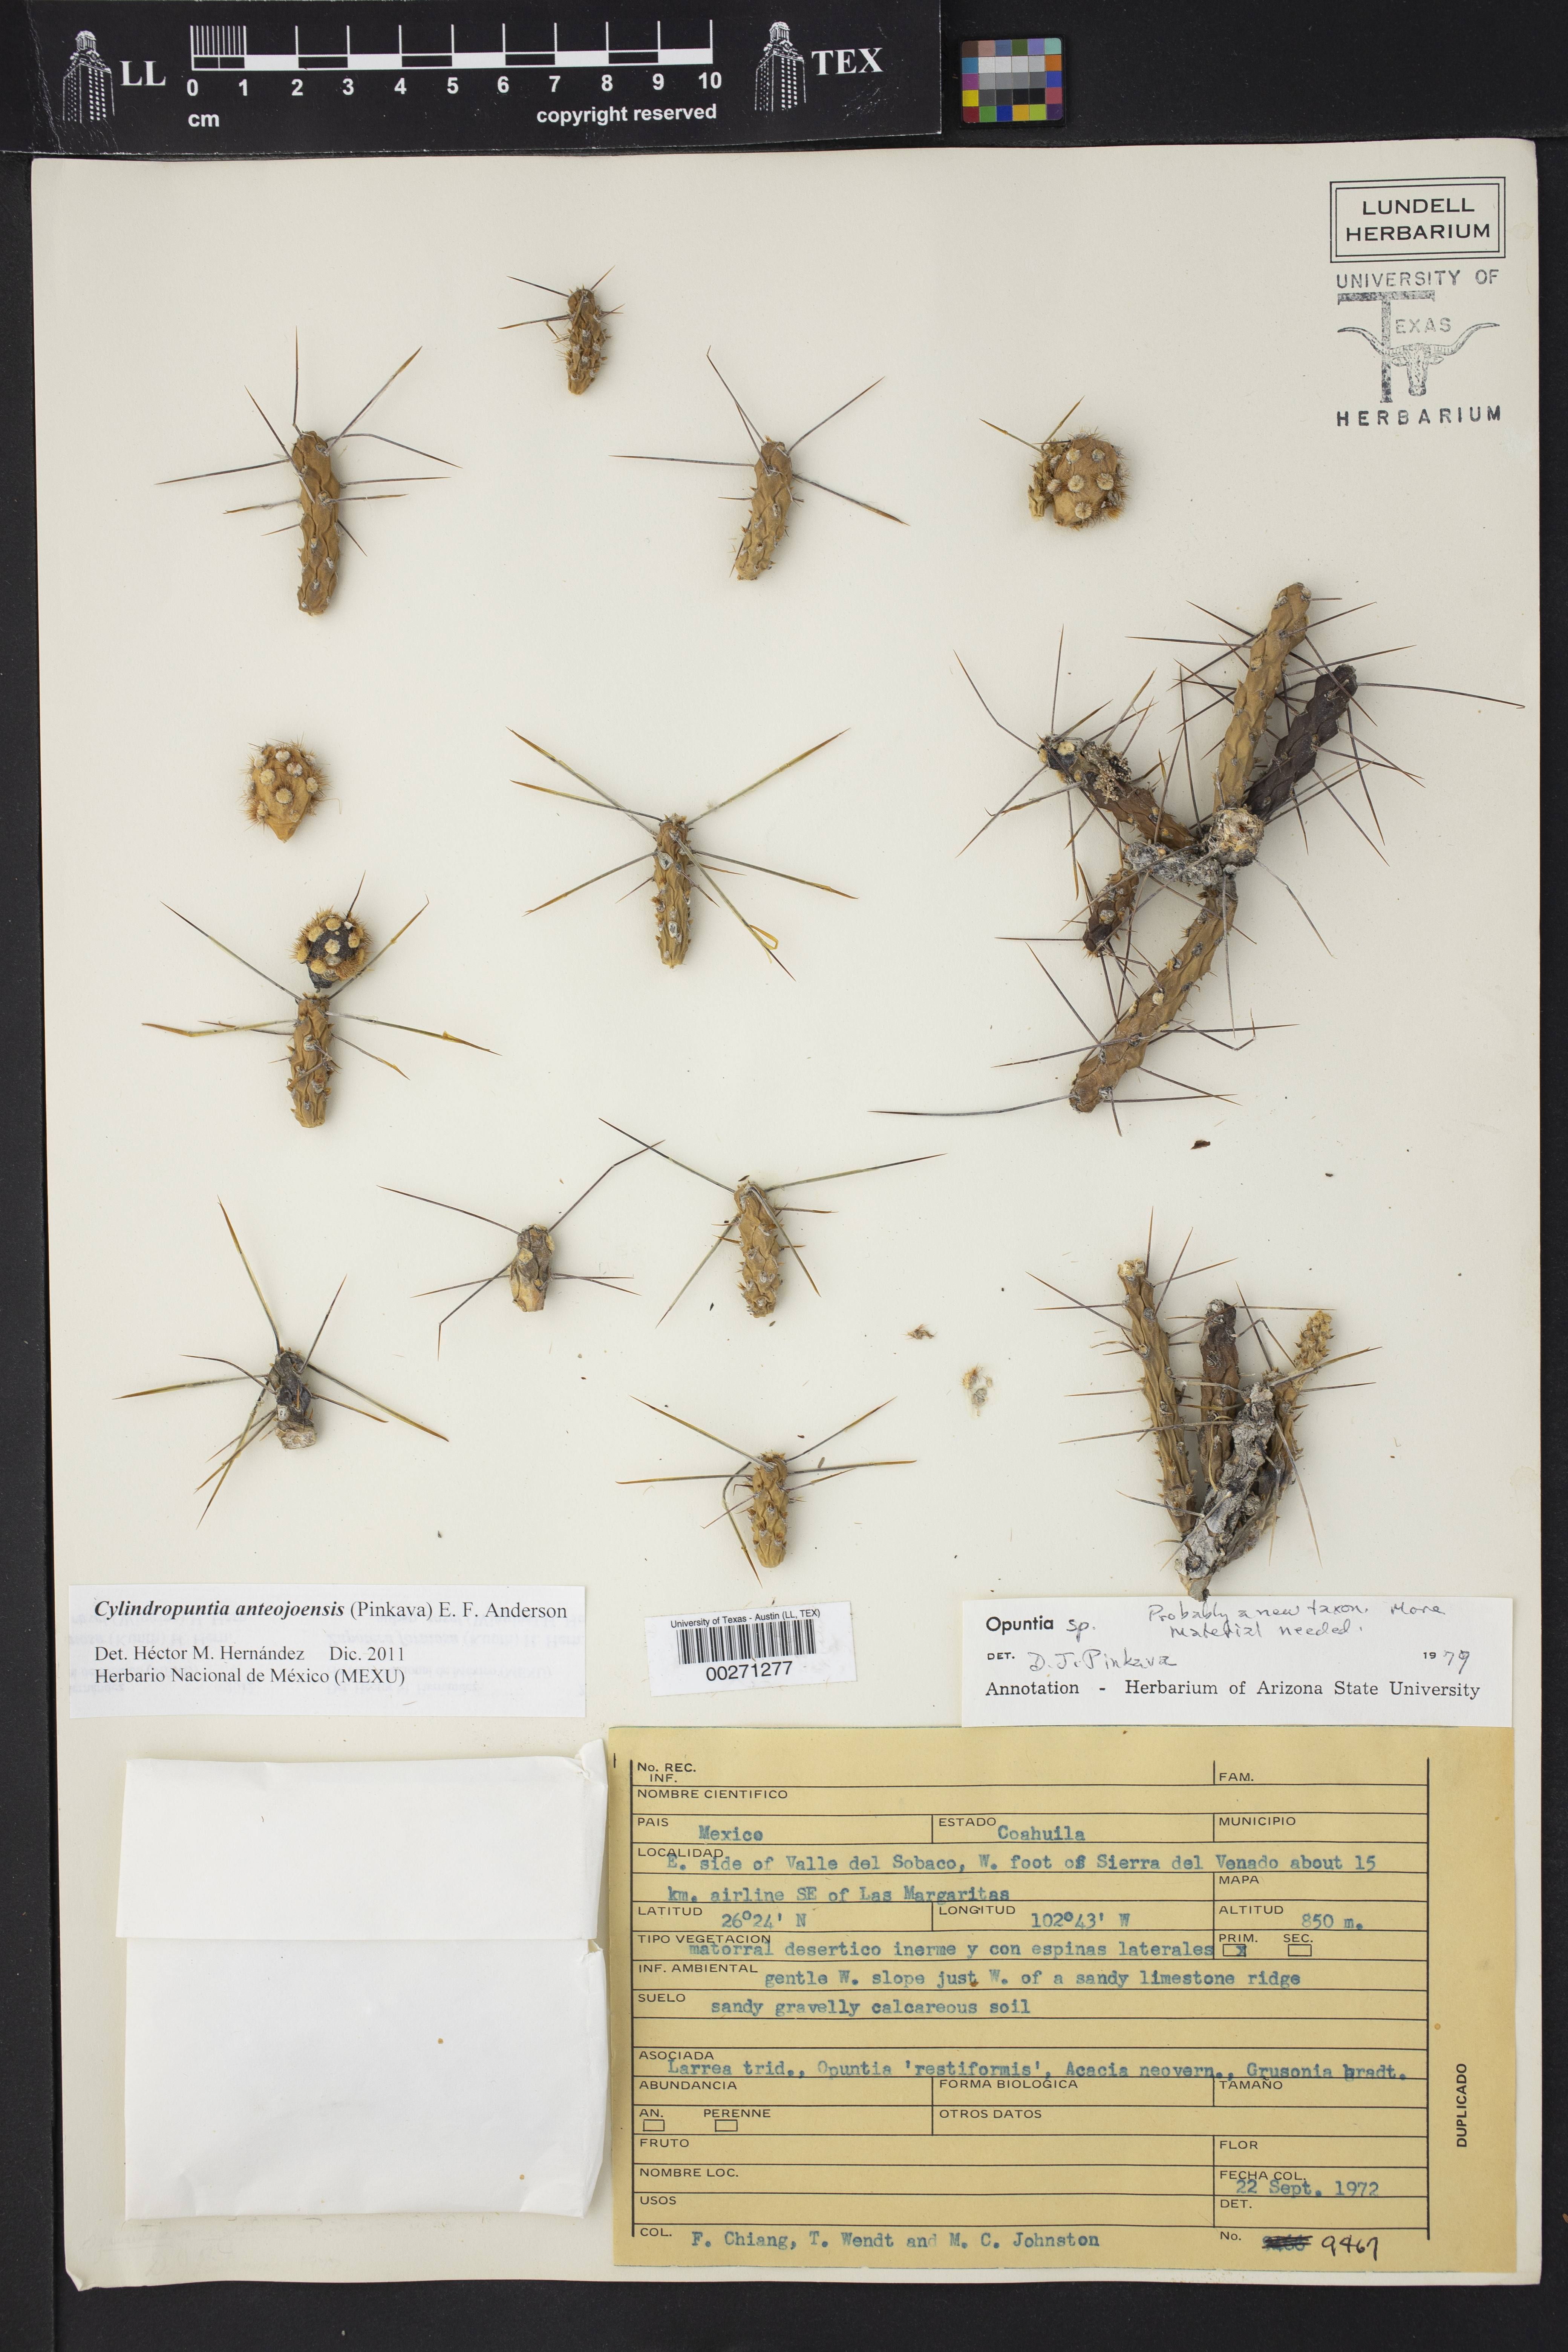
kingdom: Plantae
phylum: Tracheophyta
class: Magnoliopsida
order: Caryophyllales
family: Cactaceae
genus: Cylindropuntia
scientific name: Cylindropuntia anteojoensis
